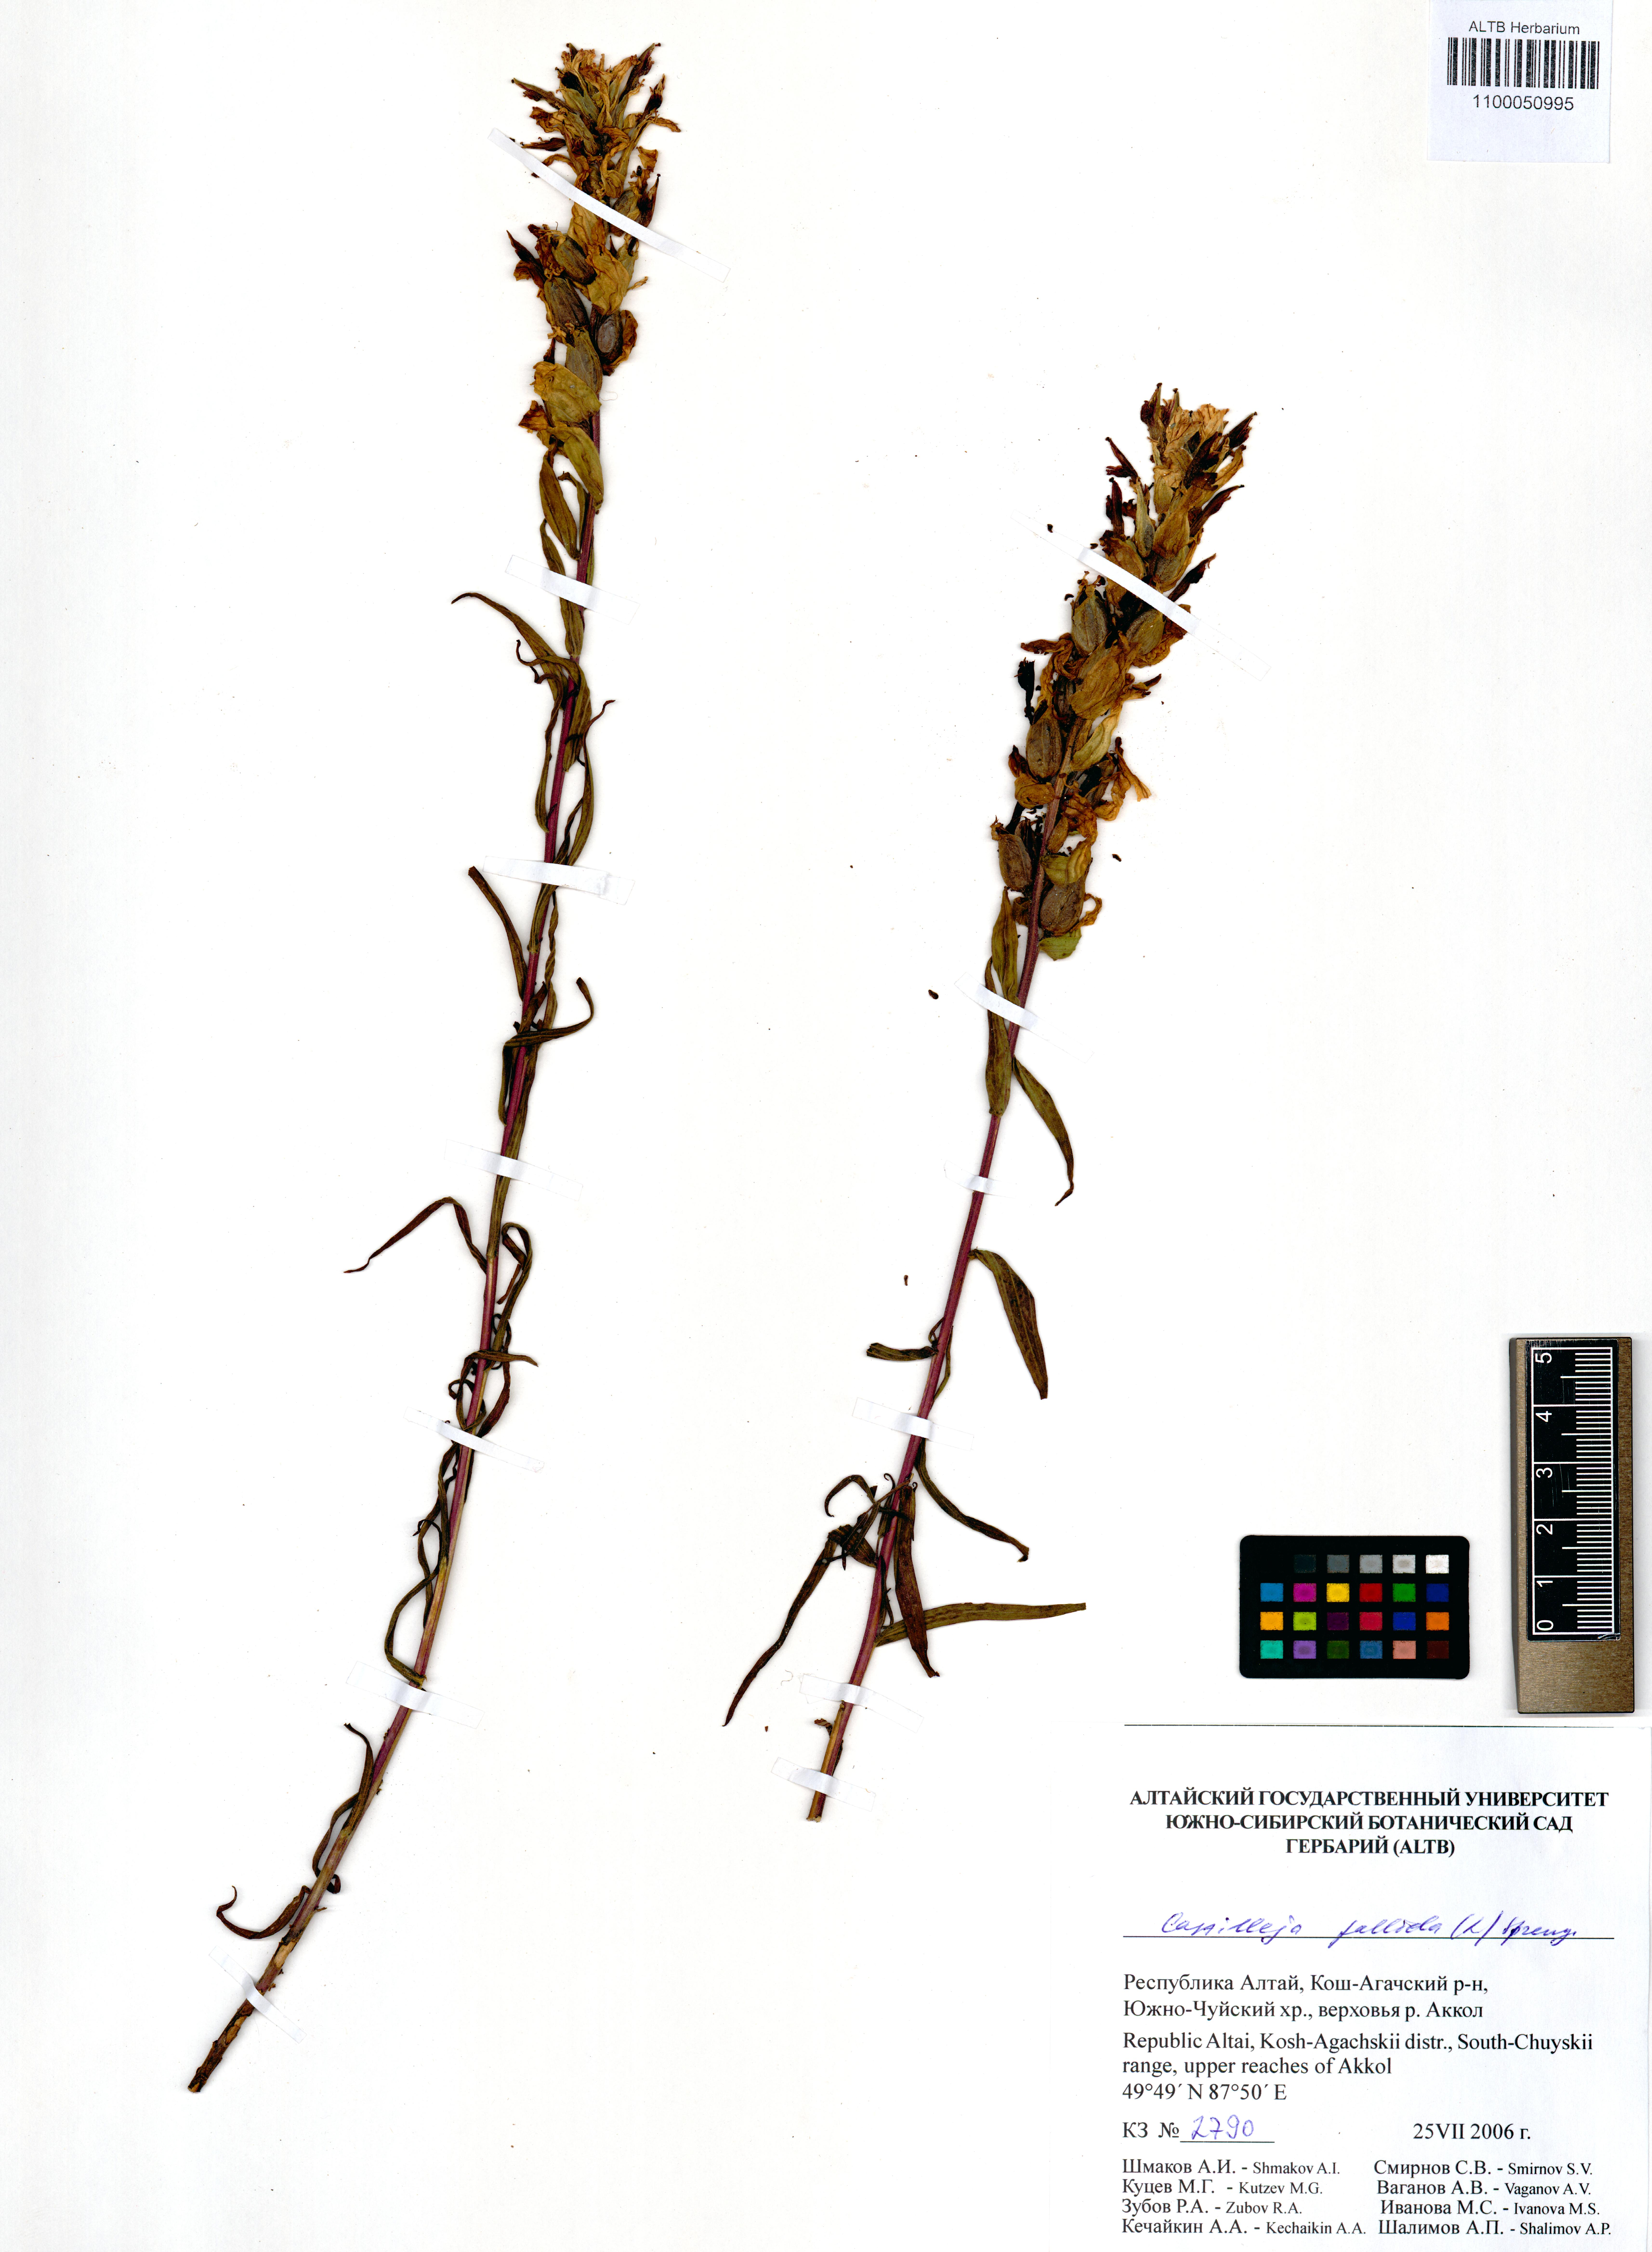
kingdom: Plantae
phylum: Tracheophyta
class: Magnoliopsida
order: Lamiales
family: Orobanchaceae
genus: Castilleja
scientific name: Castilleja pallida
